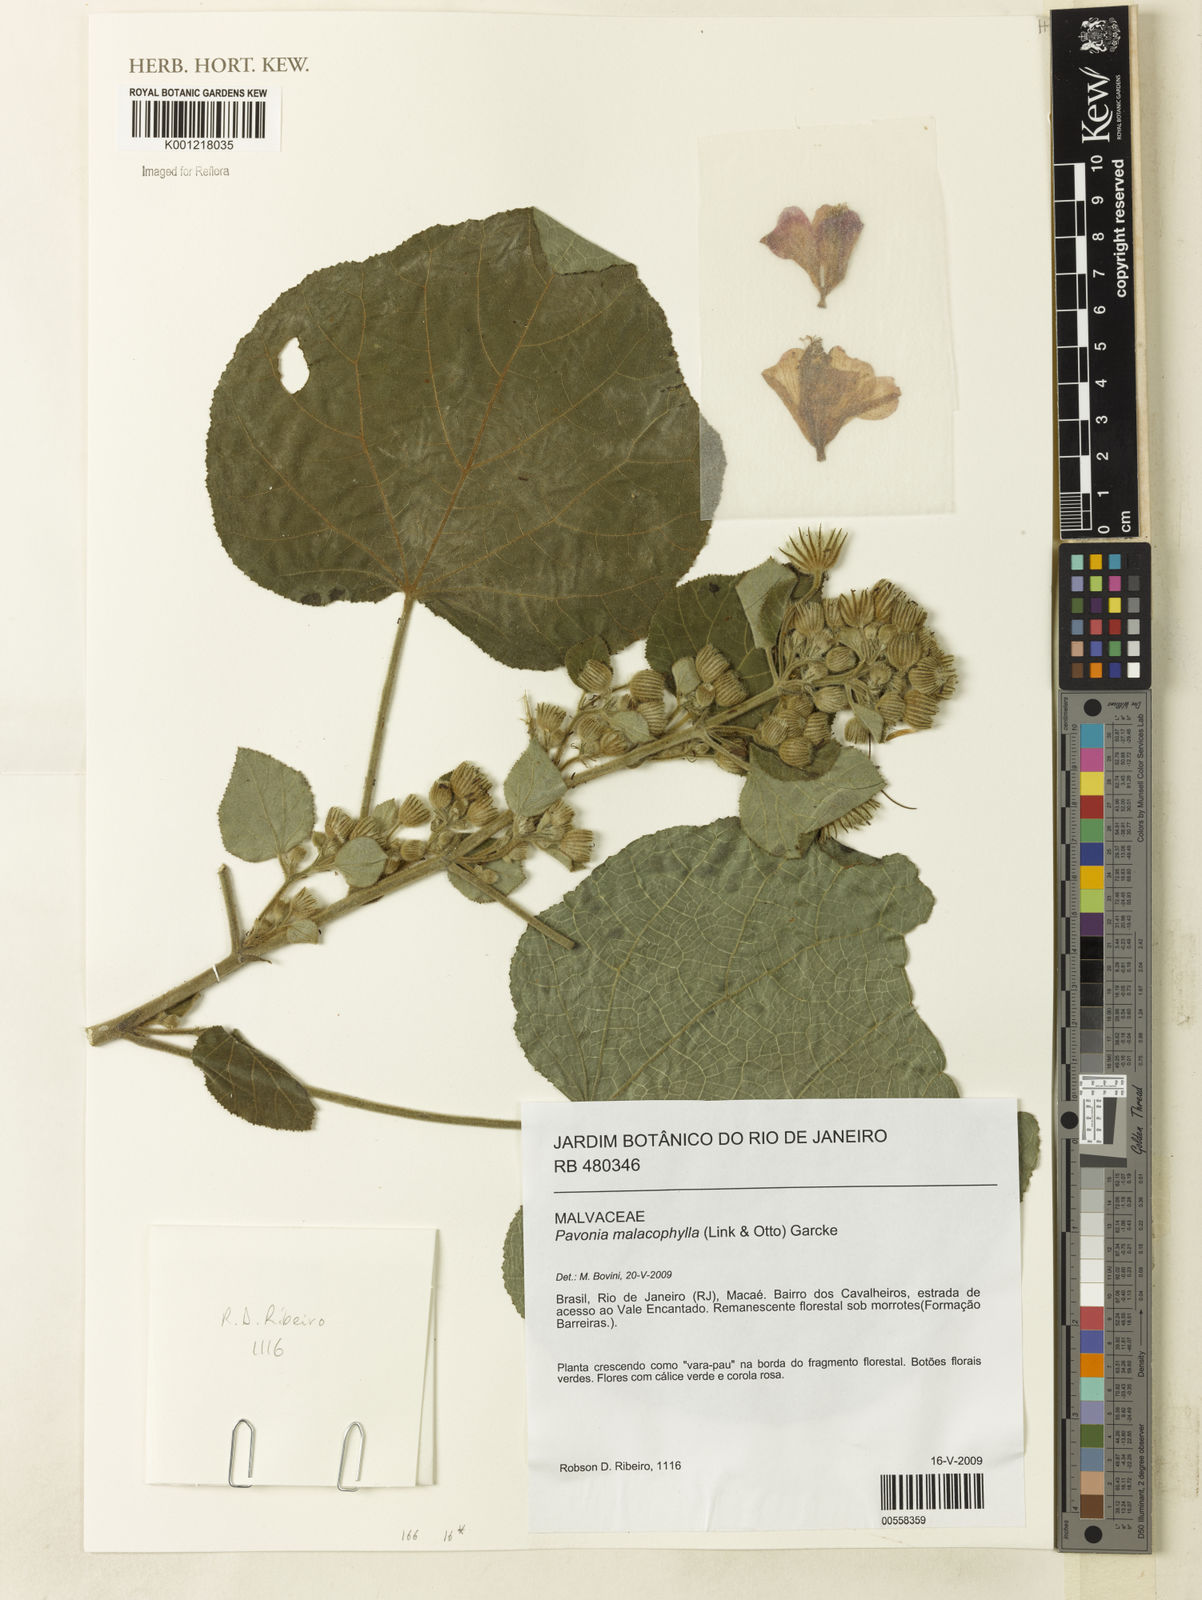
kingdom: Plantae
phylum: Tracheophyta
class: Magnoliopsida
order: Malvales
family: Malvaceae
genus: Pavonia
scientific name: Pavonia malacophylla
